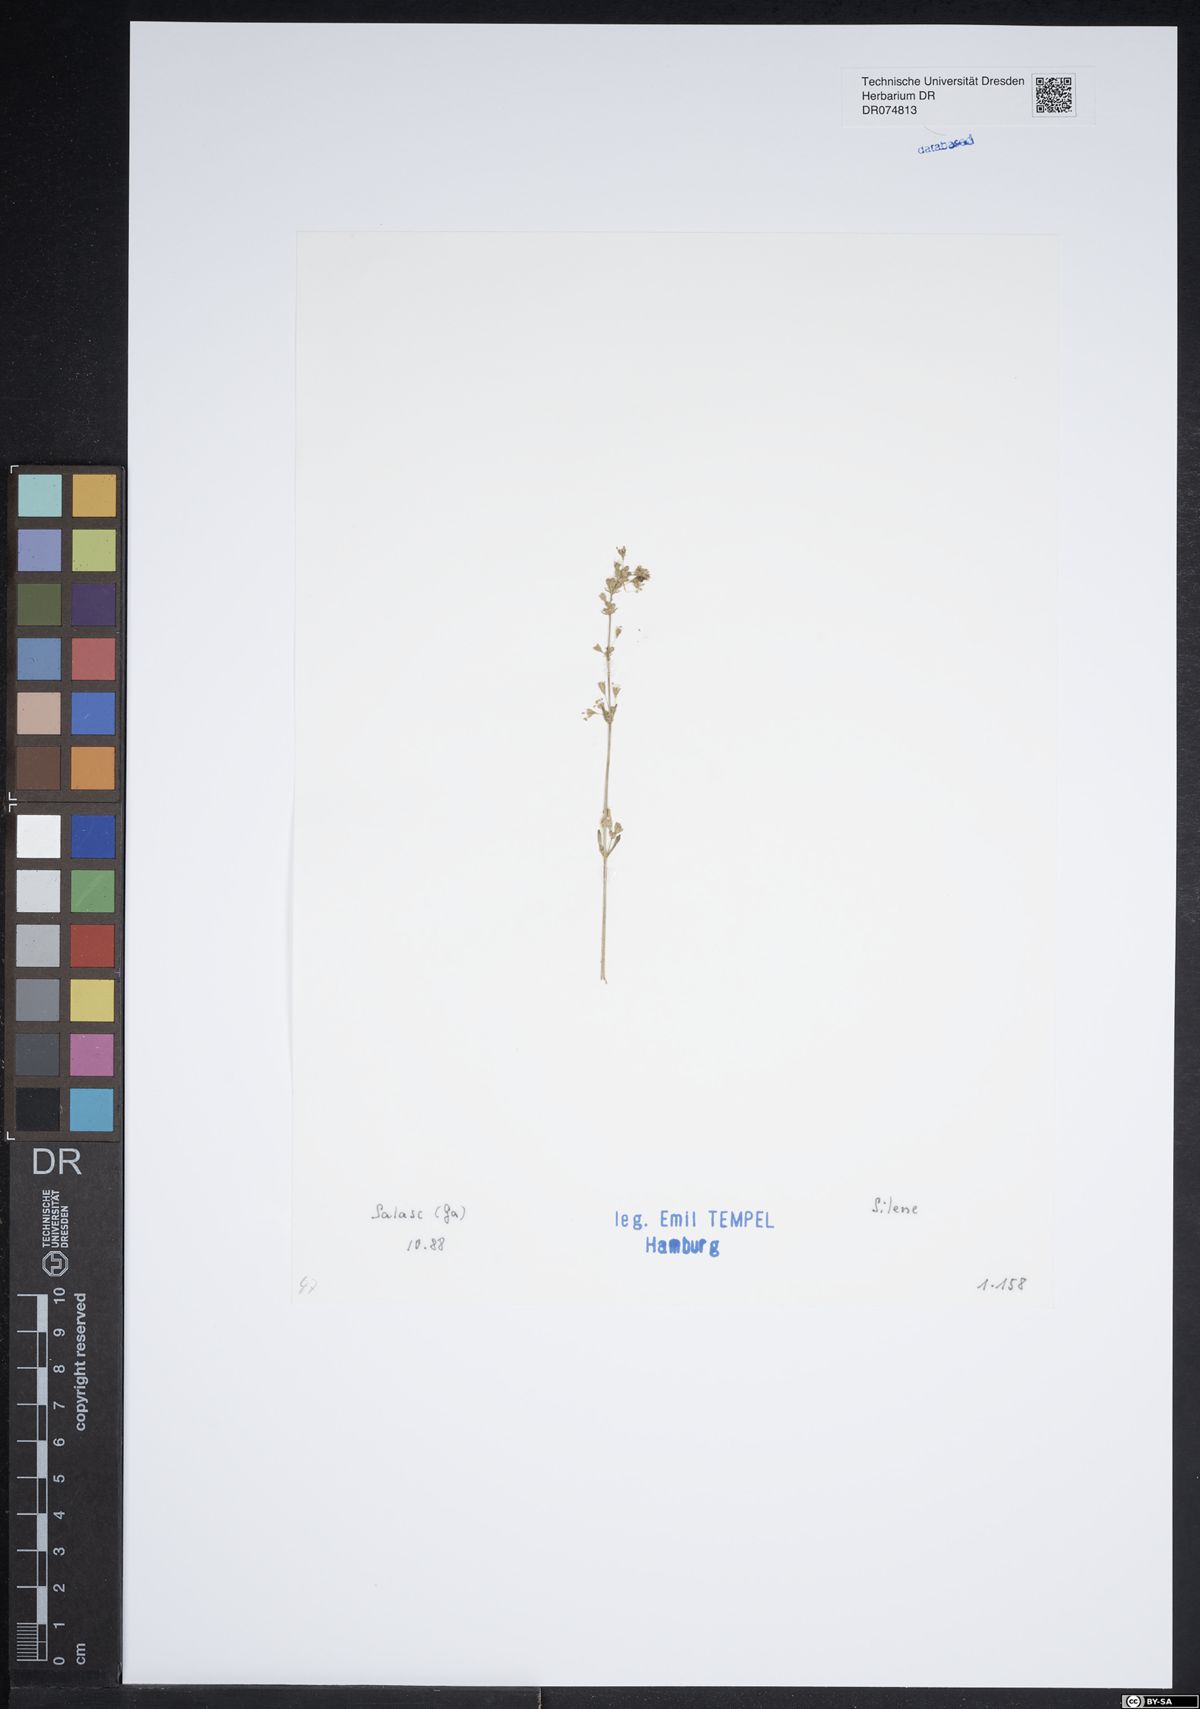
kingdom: Plantae
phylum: Tracheophyta
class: Magnoliopsida
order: Caryophyllales
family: Caryophyllaceae
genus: Silene
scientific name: Silene
